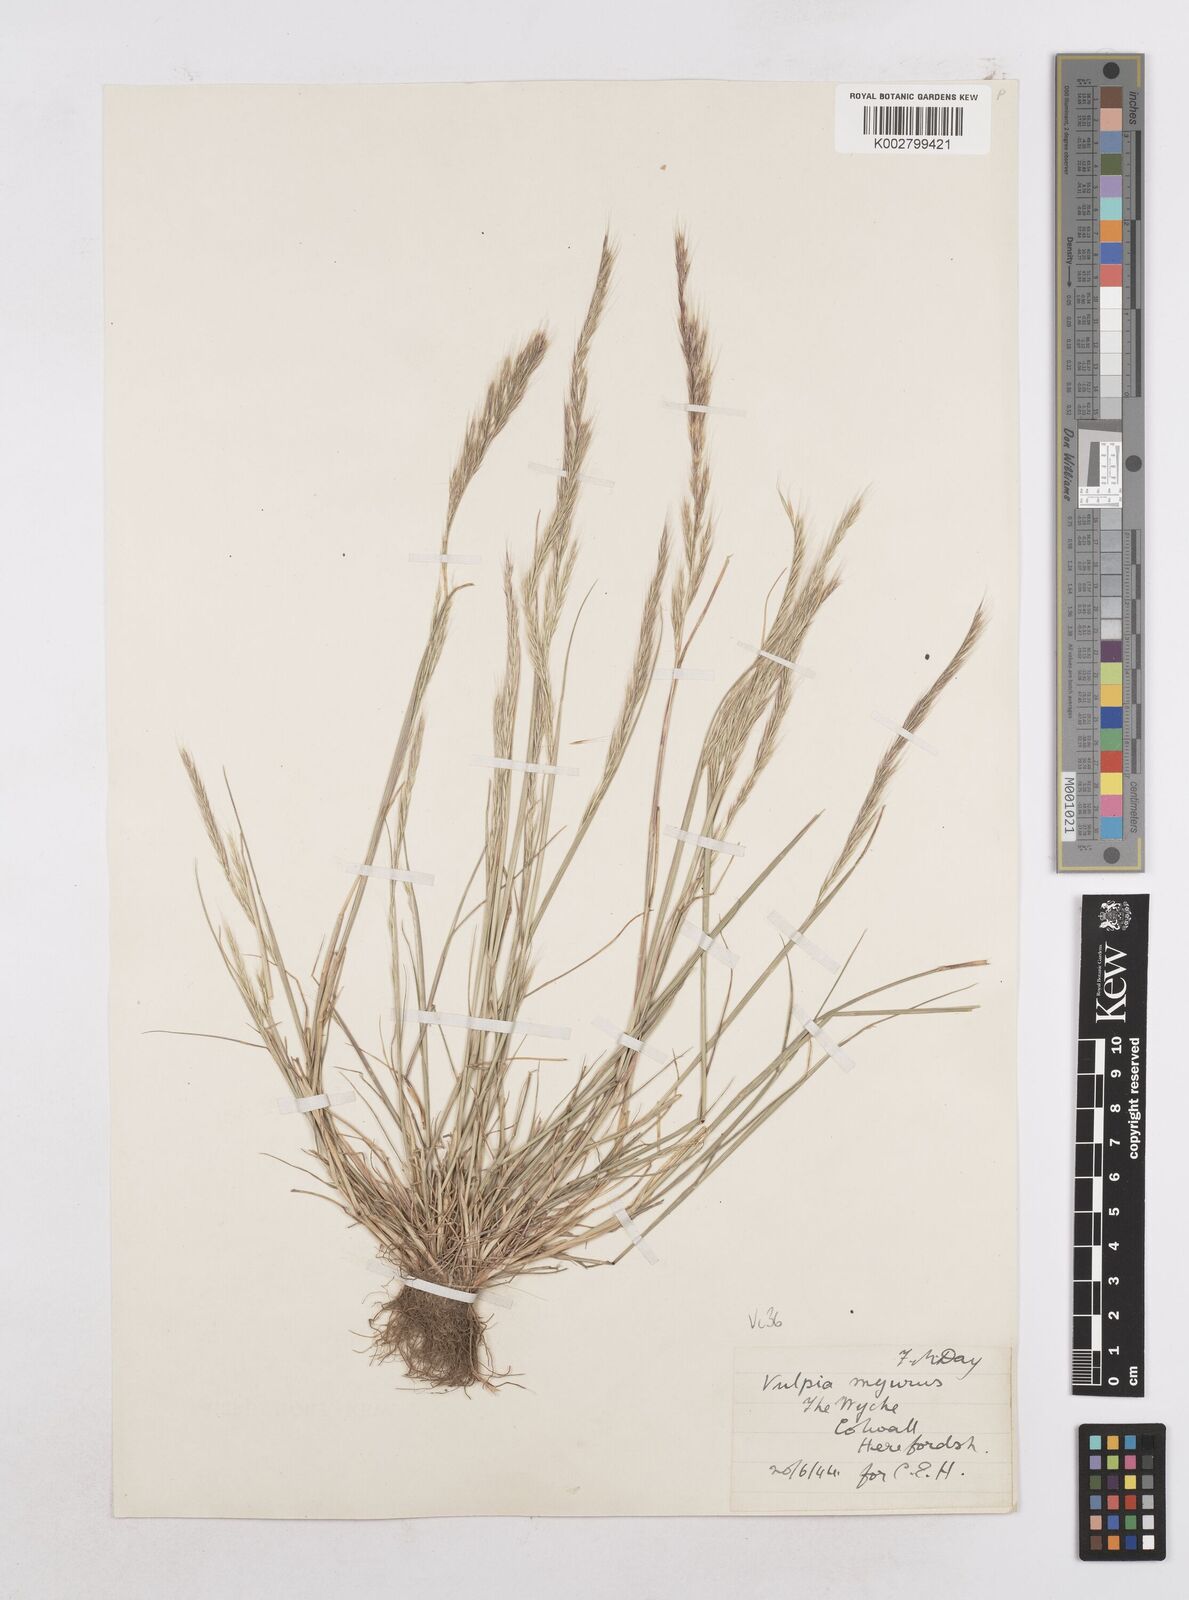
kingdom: Plantae
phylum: Tracheophyta
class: Liliopsida
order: Poales
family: Poaceae
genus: Festuca
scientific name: Festuca myuros
